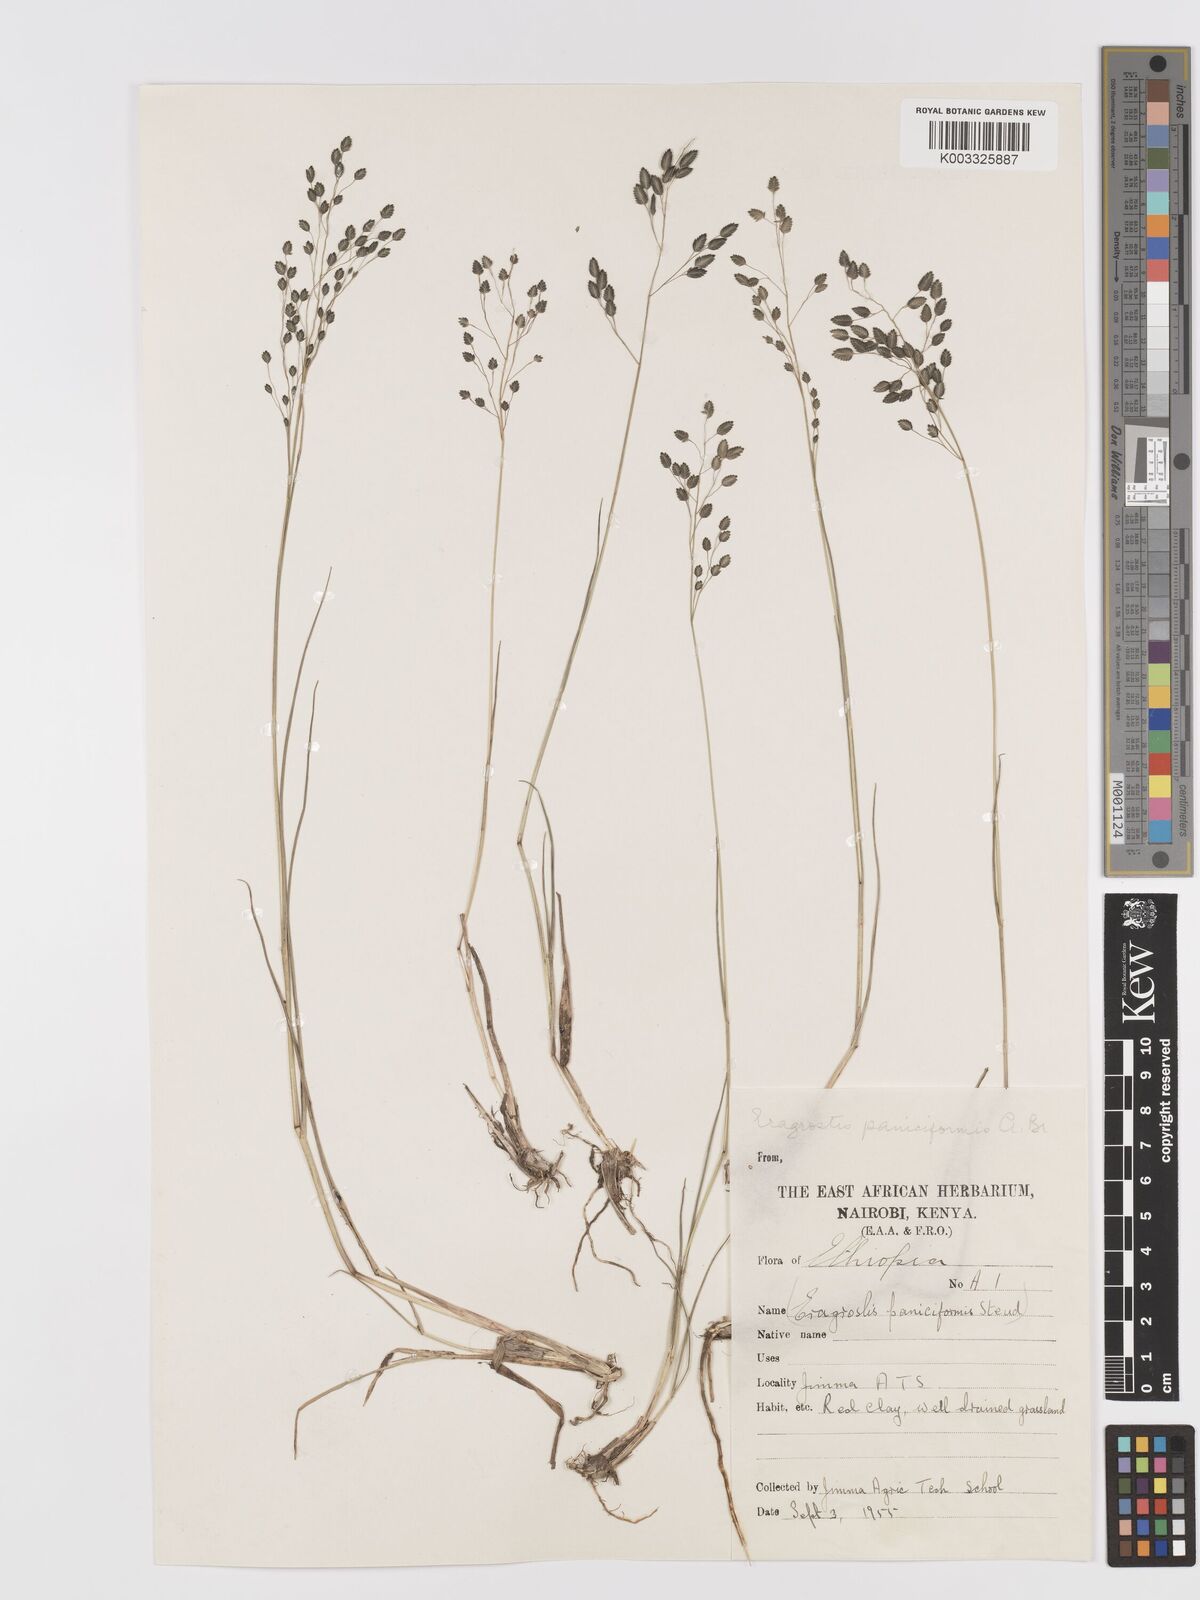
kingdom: Plantae
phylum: Tracheophyta
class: Liliopsida
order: Poales
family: Poaceae
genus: Eragrostis
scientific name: Eragrostis paniciformis
